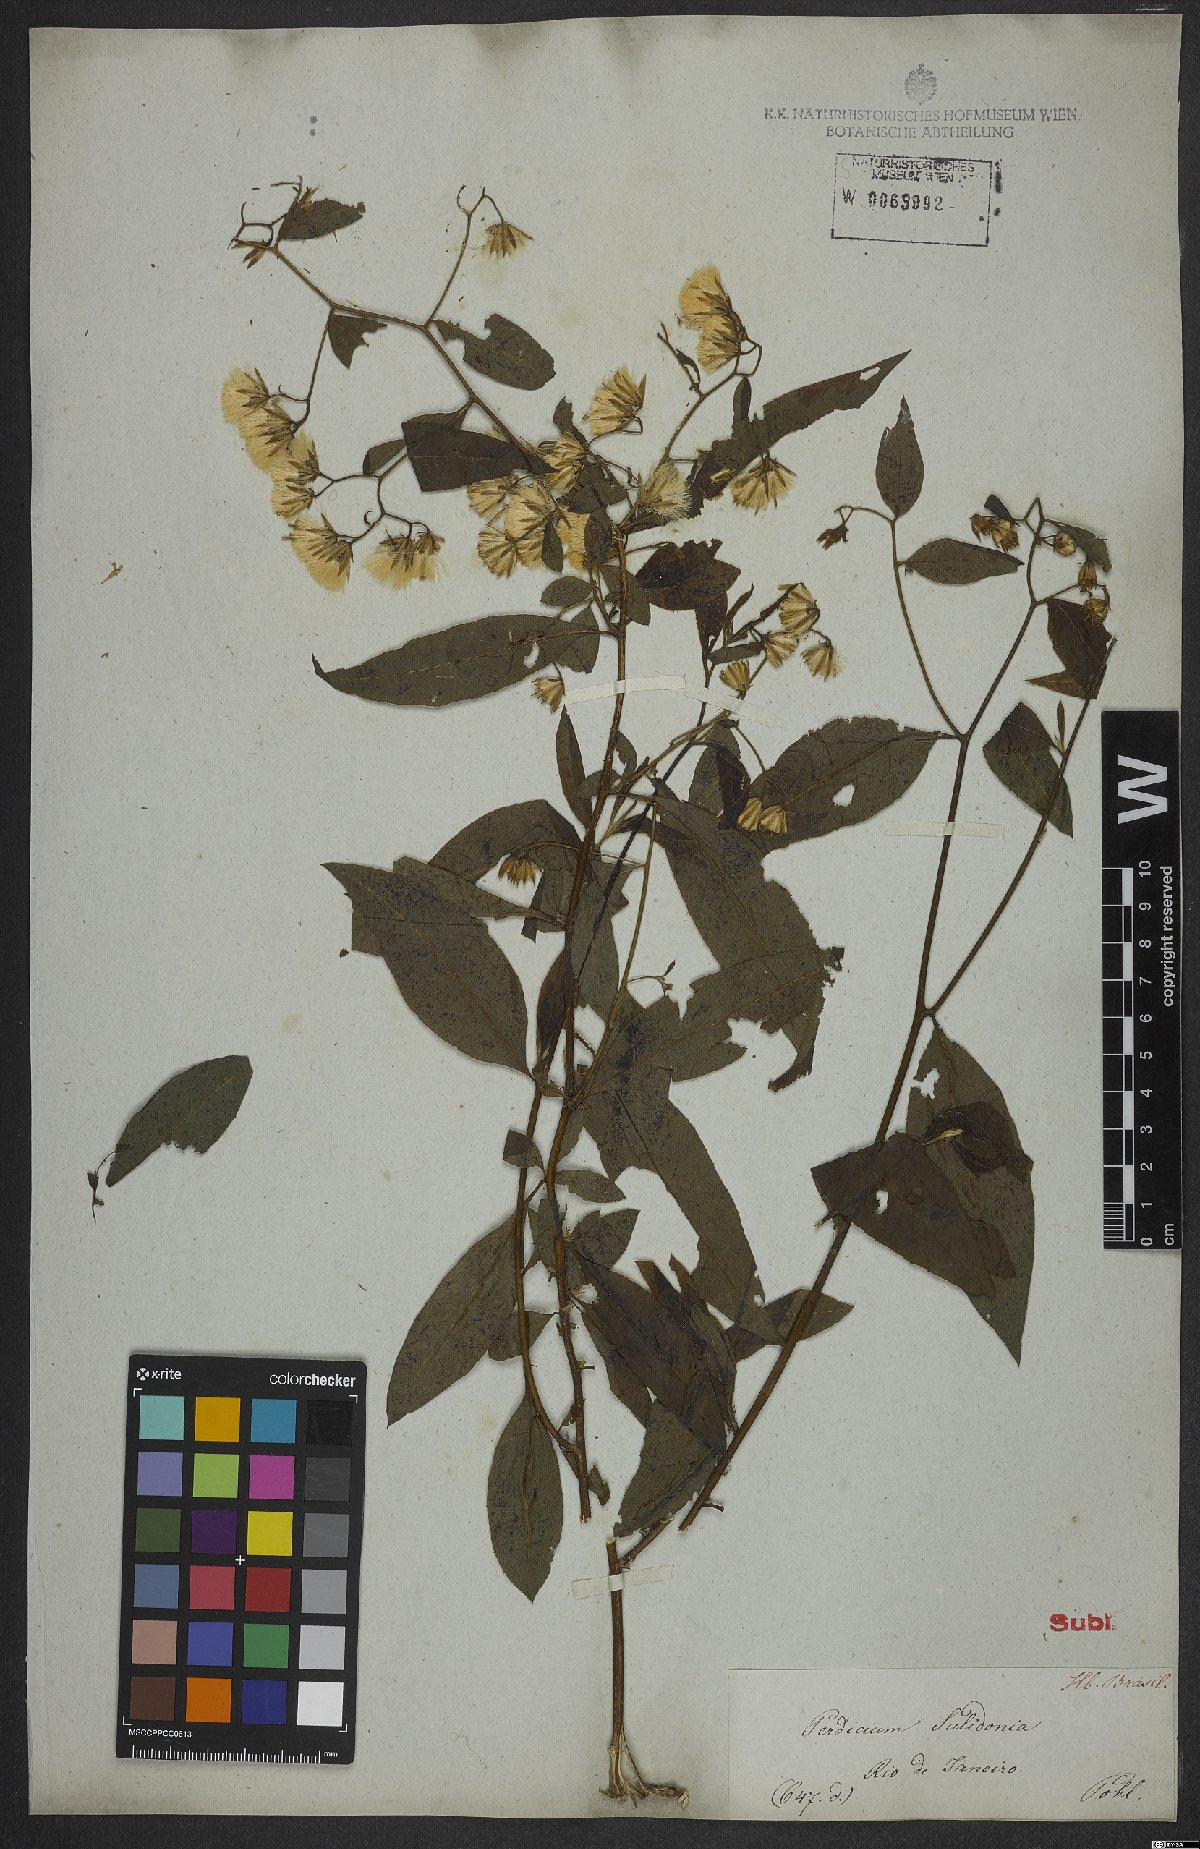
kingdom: Plantae
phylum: Tracheophyta
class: Magnoliopsida
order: Asterales
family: Asteraceae
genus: Trixis
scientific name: Trixis divaricata
